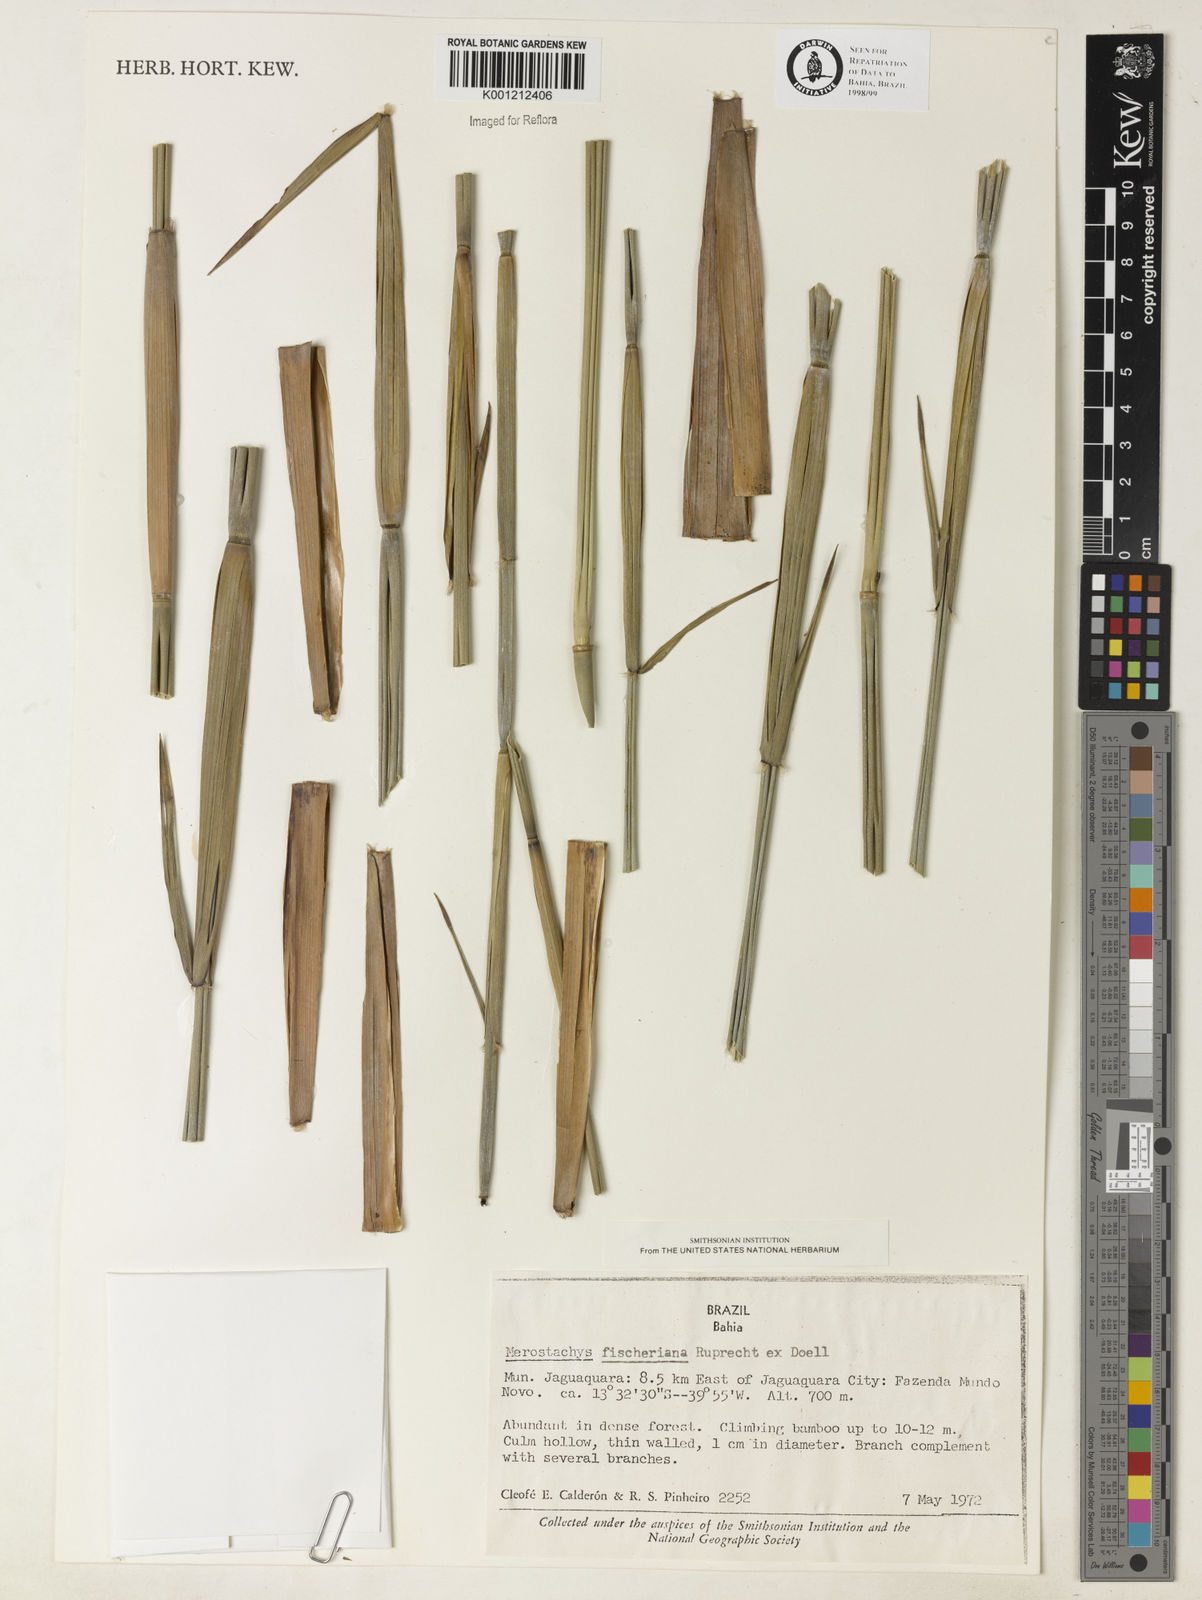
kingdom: Plantae
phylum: Tracheophyta
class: Liliopsida
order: Poales
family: Poaceae
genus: Merostachys
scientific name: Merostachys
